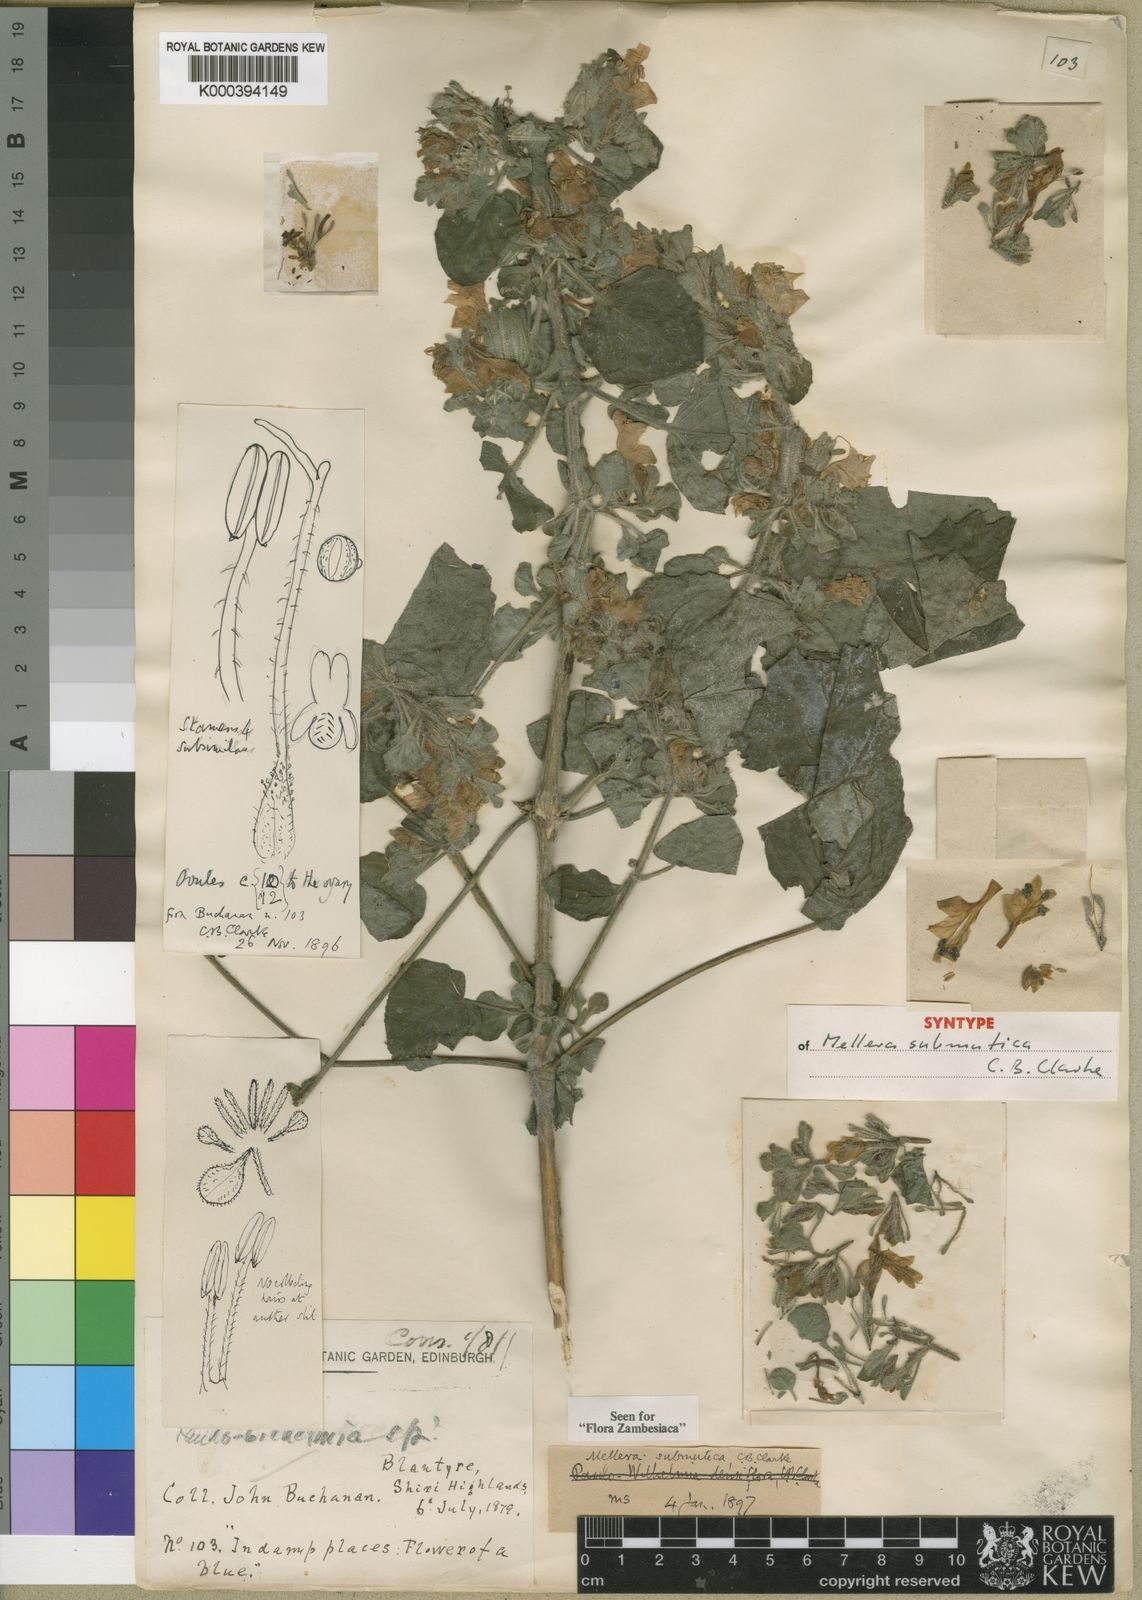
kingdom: Plantae
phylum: Tracheophyta
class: Magnoliopsida
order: Lamiales
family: Acanthaceae
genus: Mellera
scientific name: Mellera submutica
